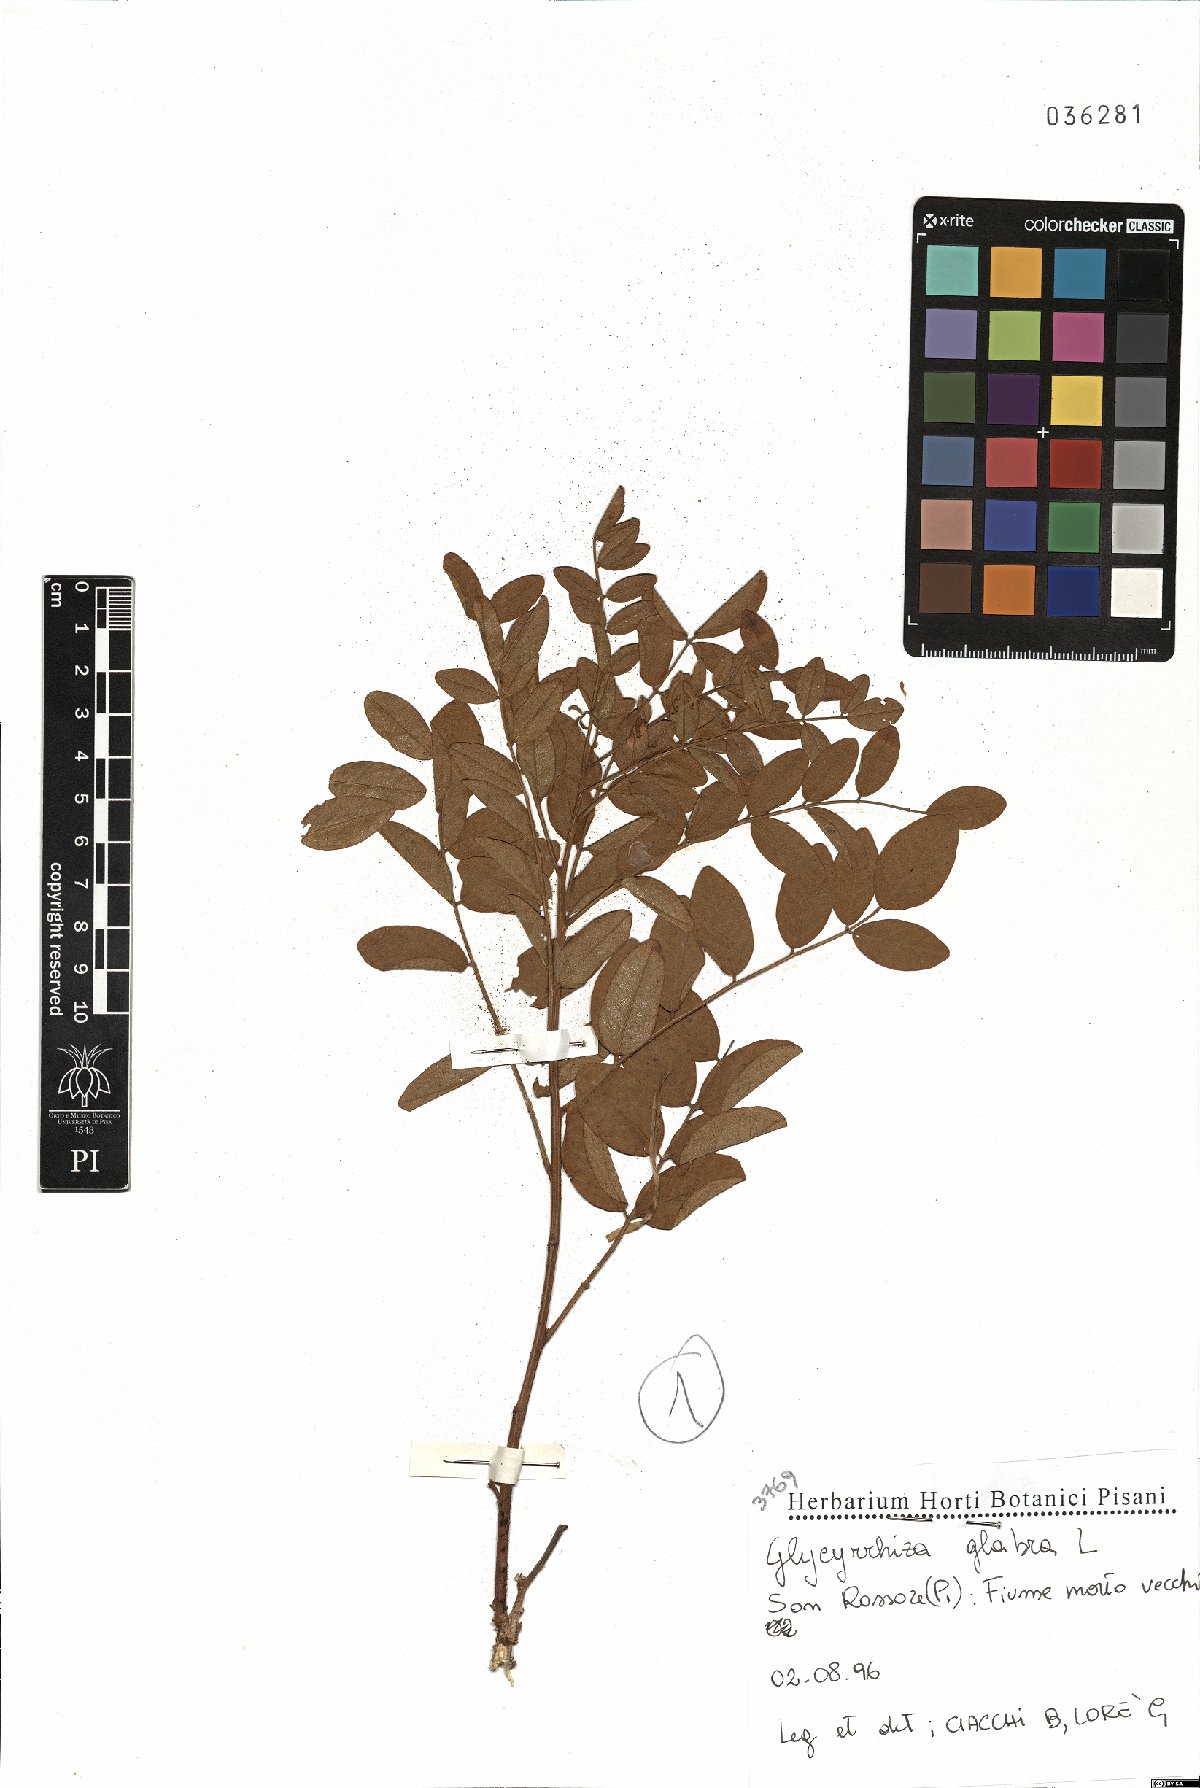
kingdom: Plantae
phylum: Tracheophyta
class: Magnoliopsida
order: Fabales
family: Fabaceae
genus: Glycyrrhiza
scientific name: Glycyrrhiza glabra
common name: Liquorice
